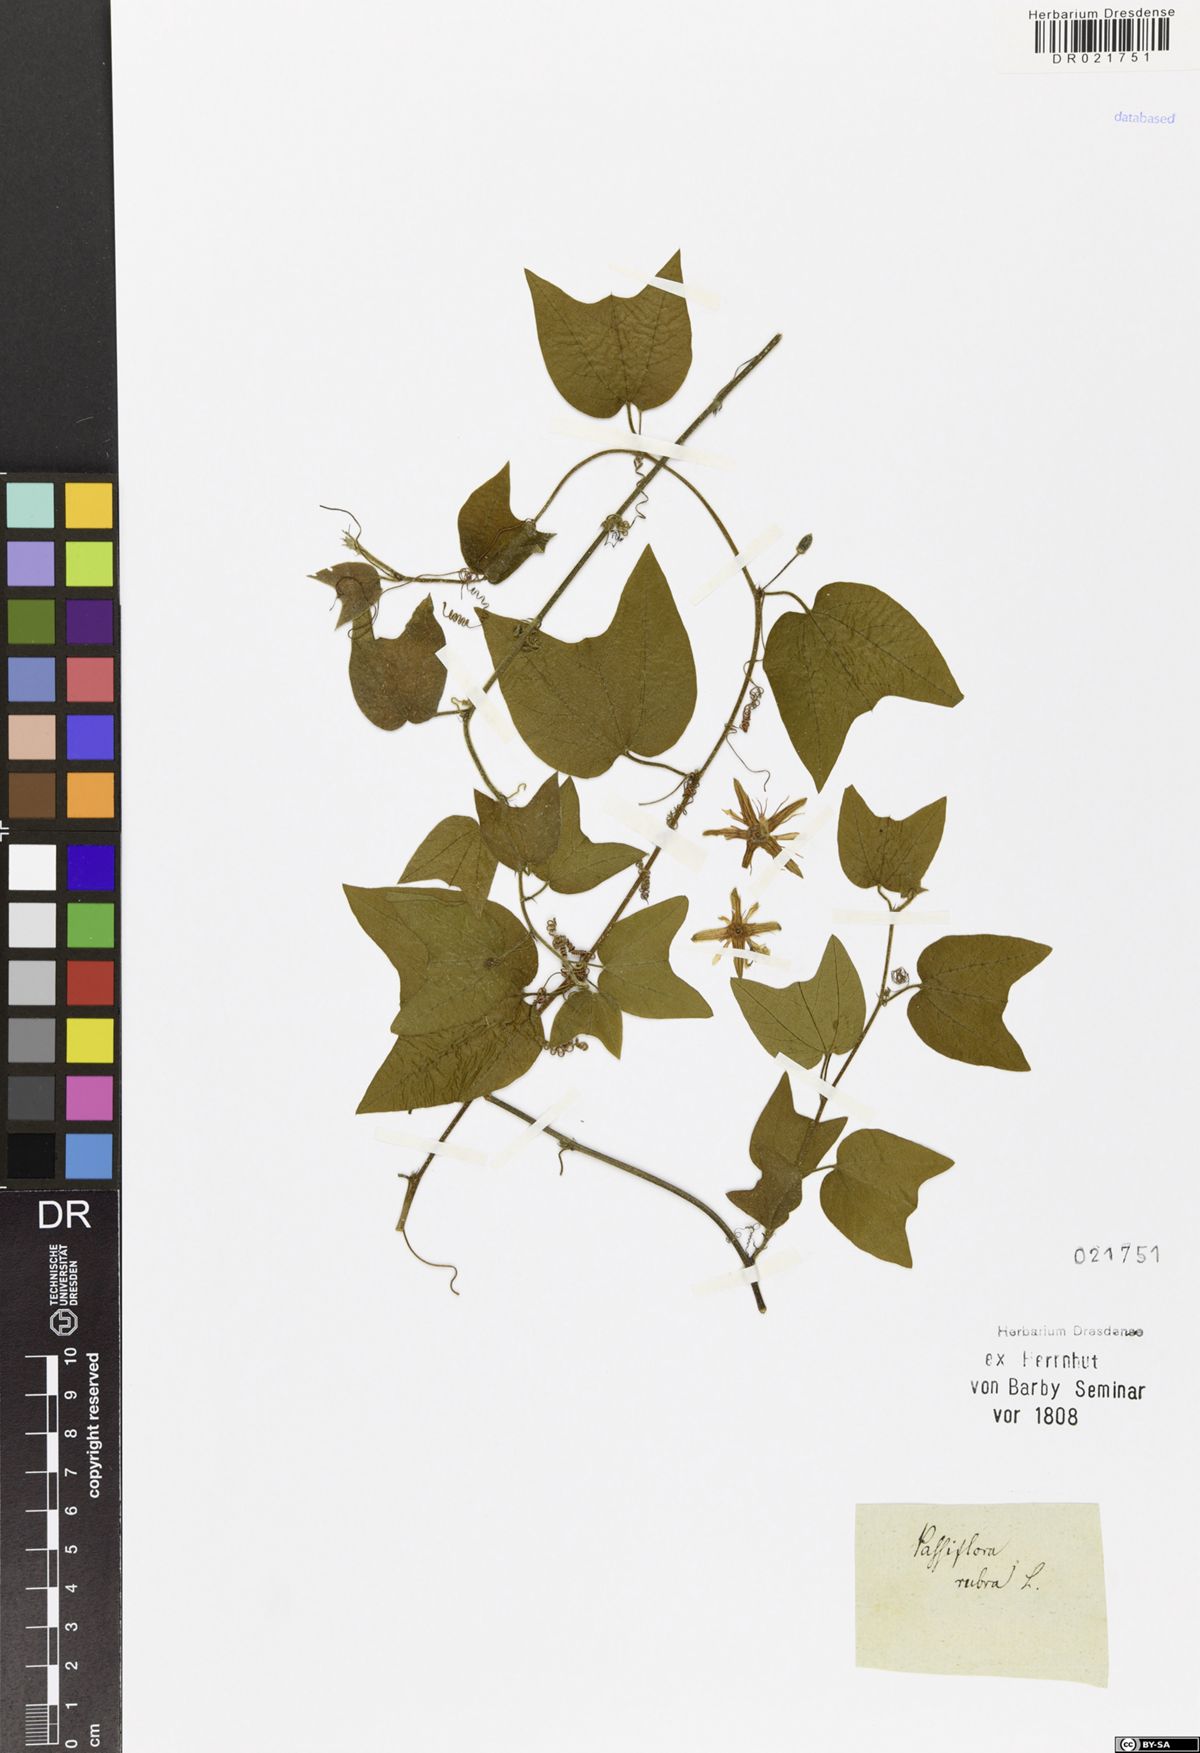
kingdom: Plantae
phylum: Tracheophyta
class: Magnoliopsida
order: Malpighiales
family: Passifloraceae
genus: Passiflora
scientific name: Passiflora rubra
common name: Snakeberry vine
